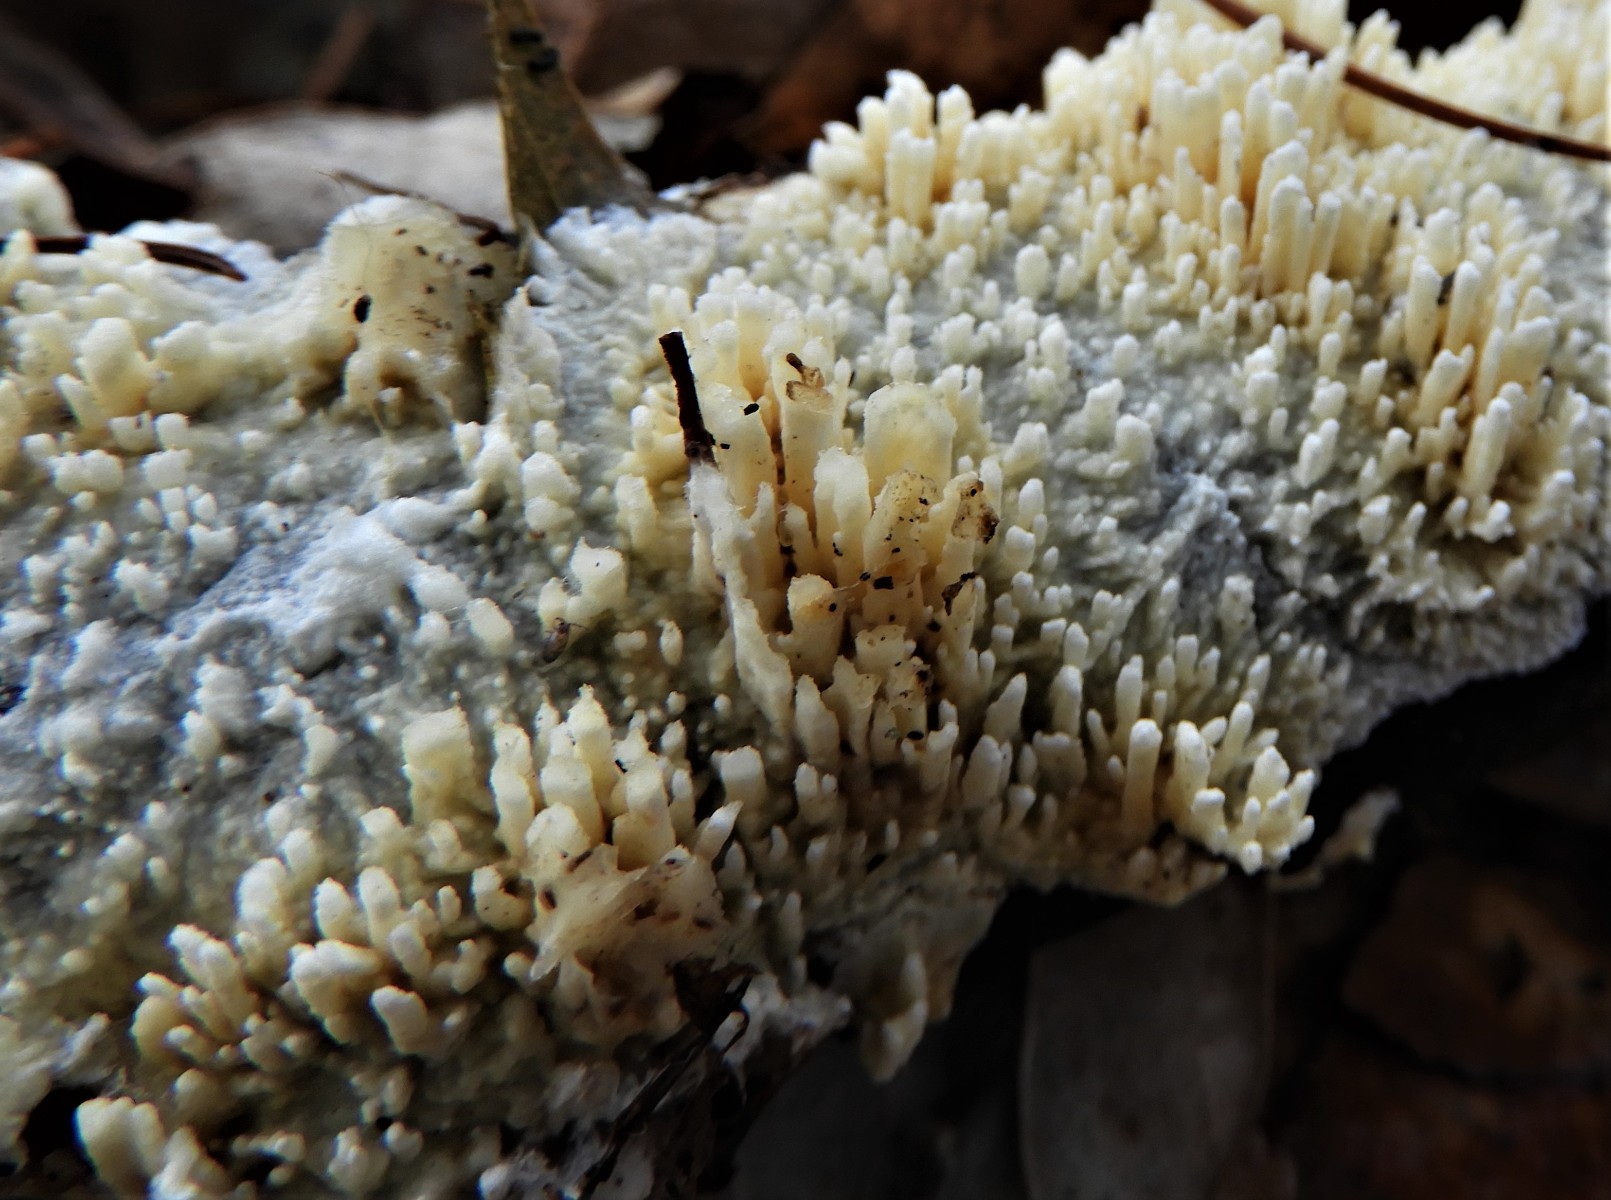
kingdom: Fungi
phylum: Basidiomycota
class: Agaricomycetes
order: Hymenochaetales
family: Schizoporaceae
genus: Xylodon
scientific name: Xylodon radula
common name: grovtandet kalkskind
